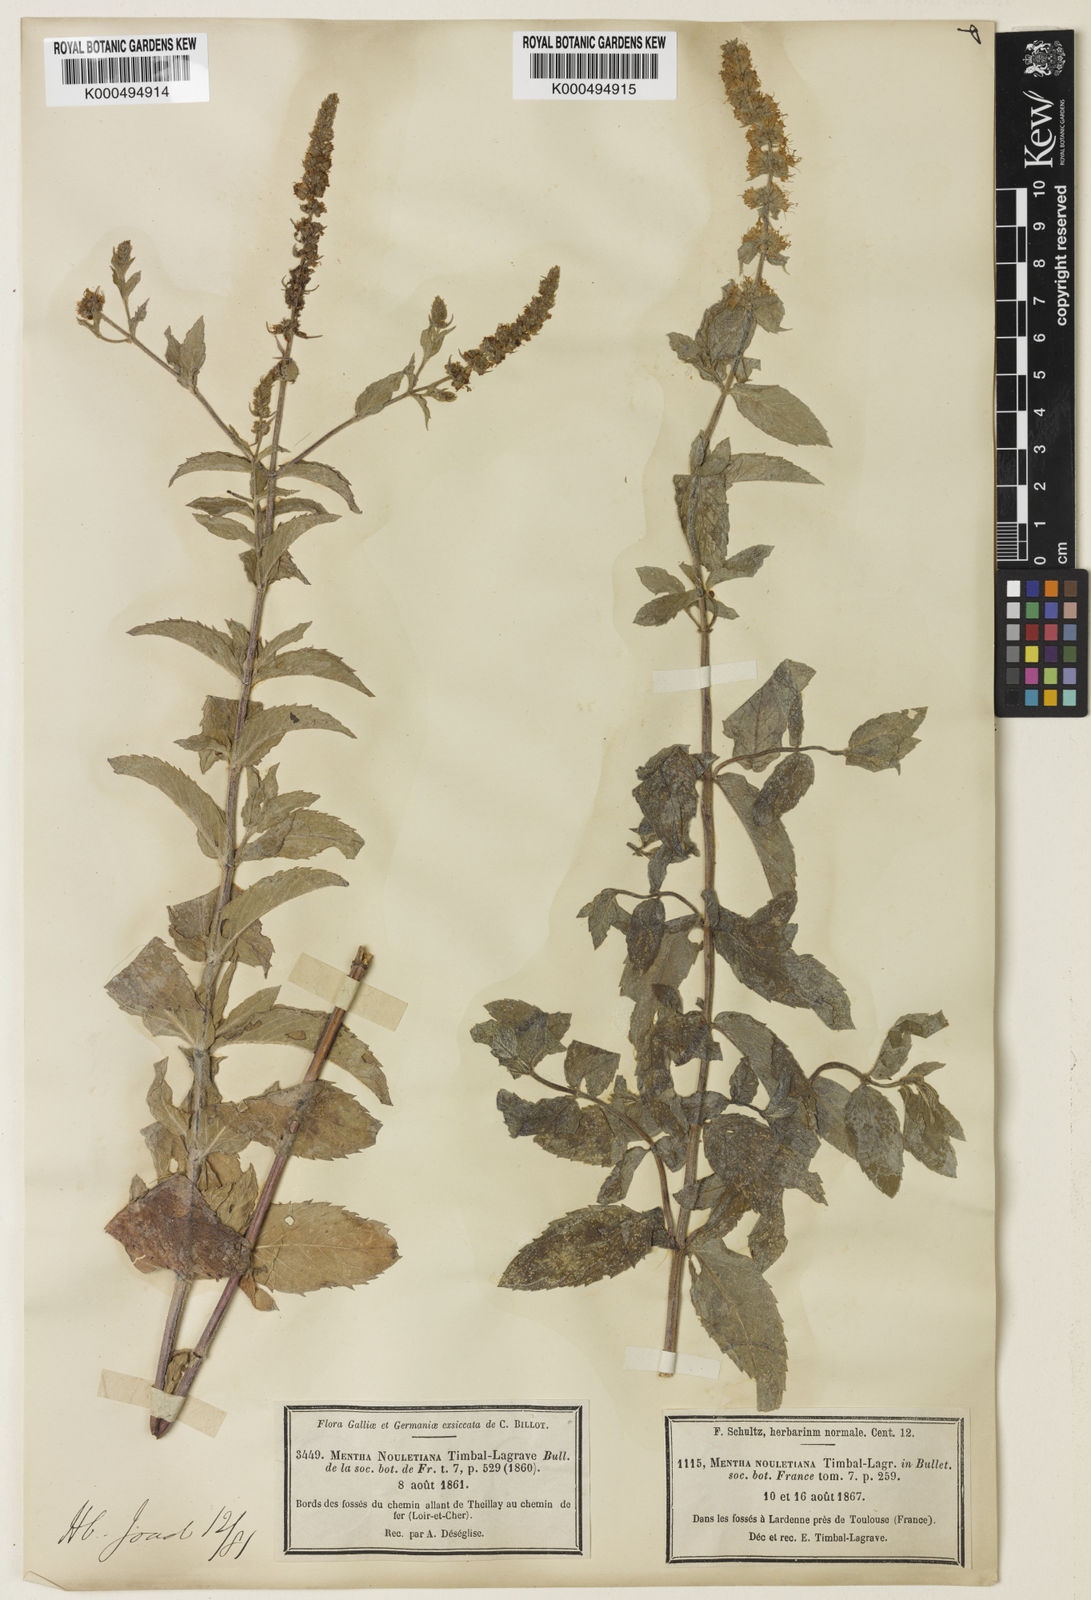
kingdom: Plantae
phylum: Tracheophyta
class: Magnoliopsida
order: Lamiales
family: Lamiaceae
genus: Mentha
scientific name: Mentha spicata
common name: Spearmint
